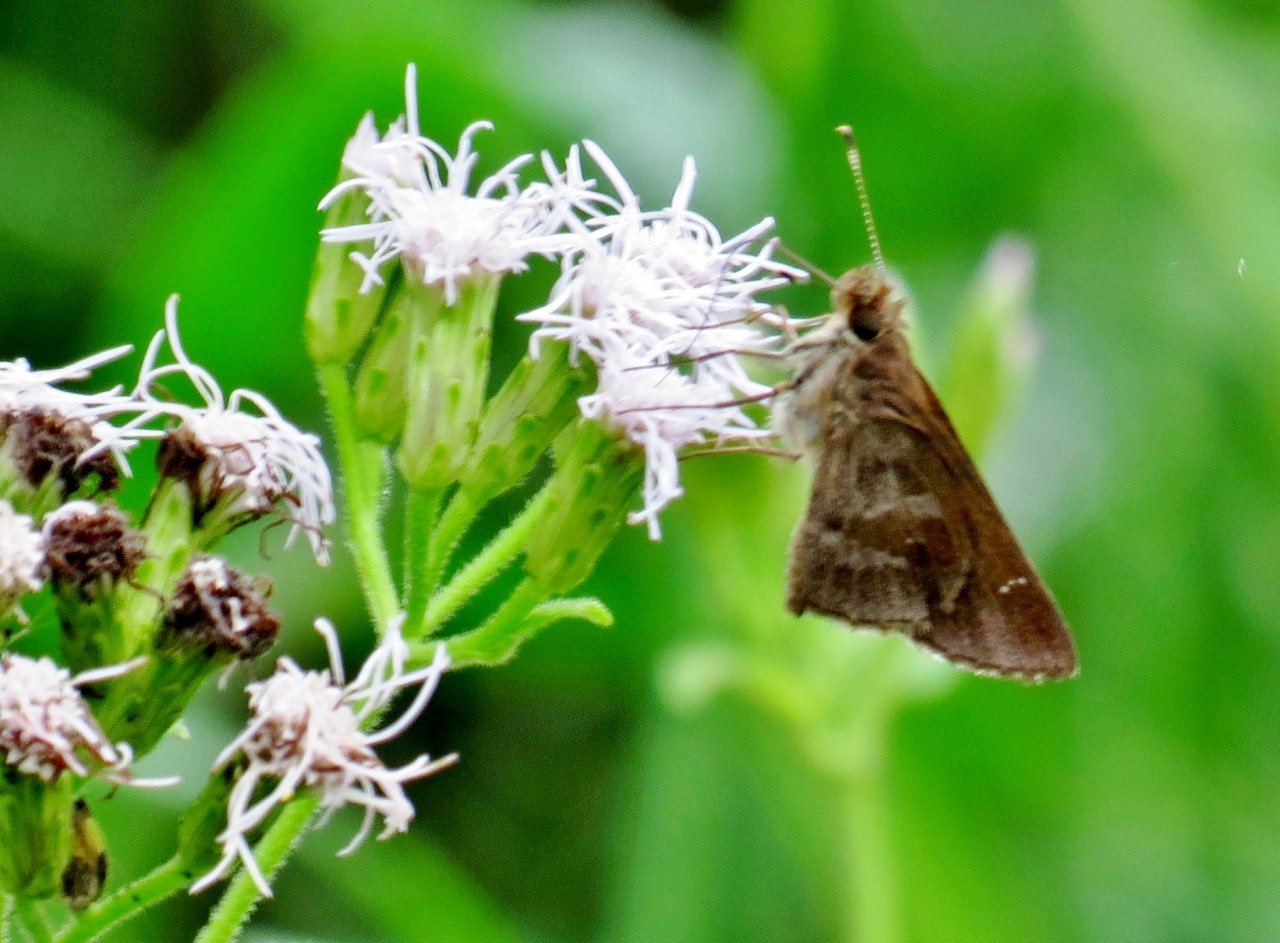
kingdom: Animalia
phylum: Arthropoda
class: Insecta
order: Lepidoptera
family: Hesperiidae
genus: Cymaenes
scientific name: Cymaenes odilia
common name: Fawn-spotted Skipper
